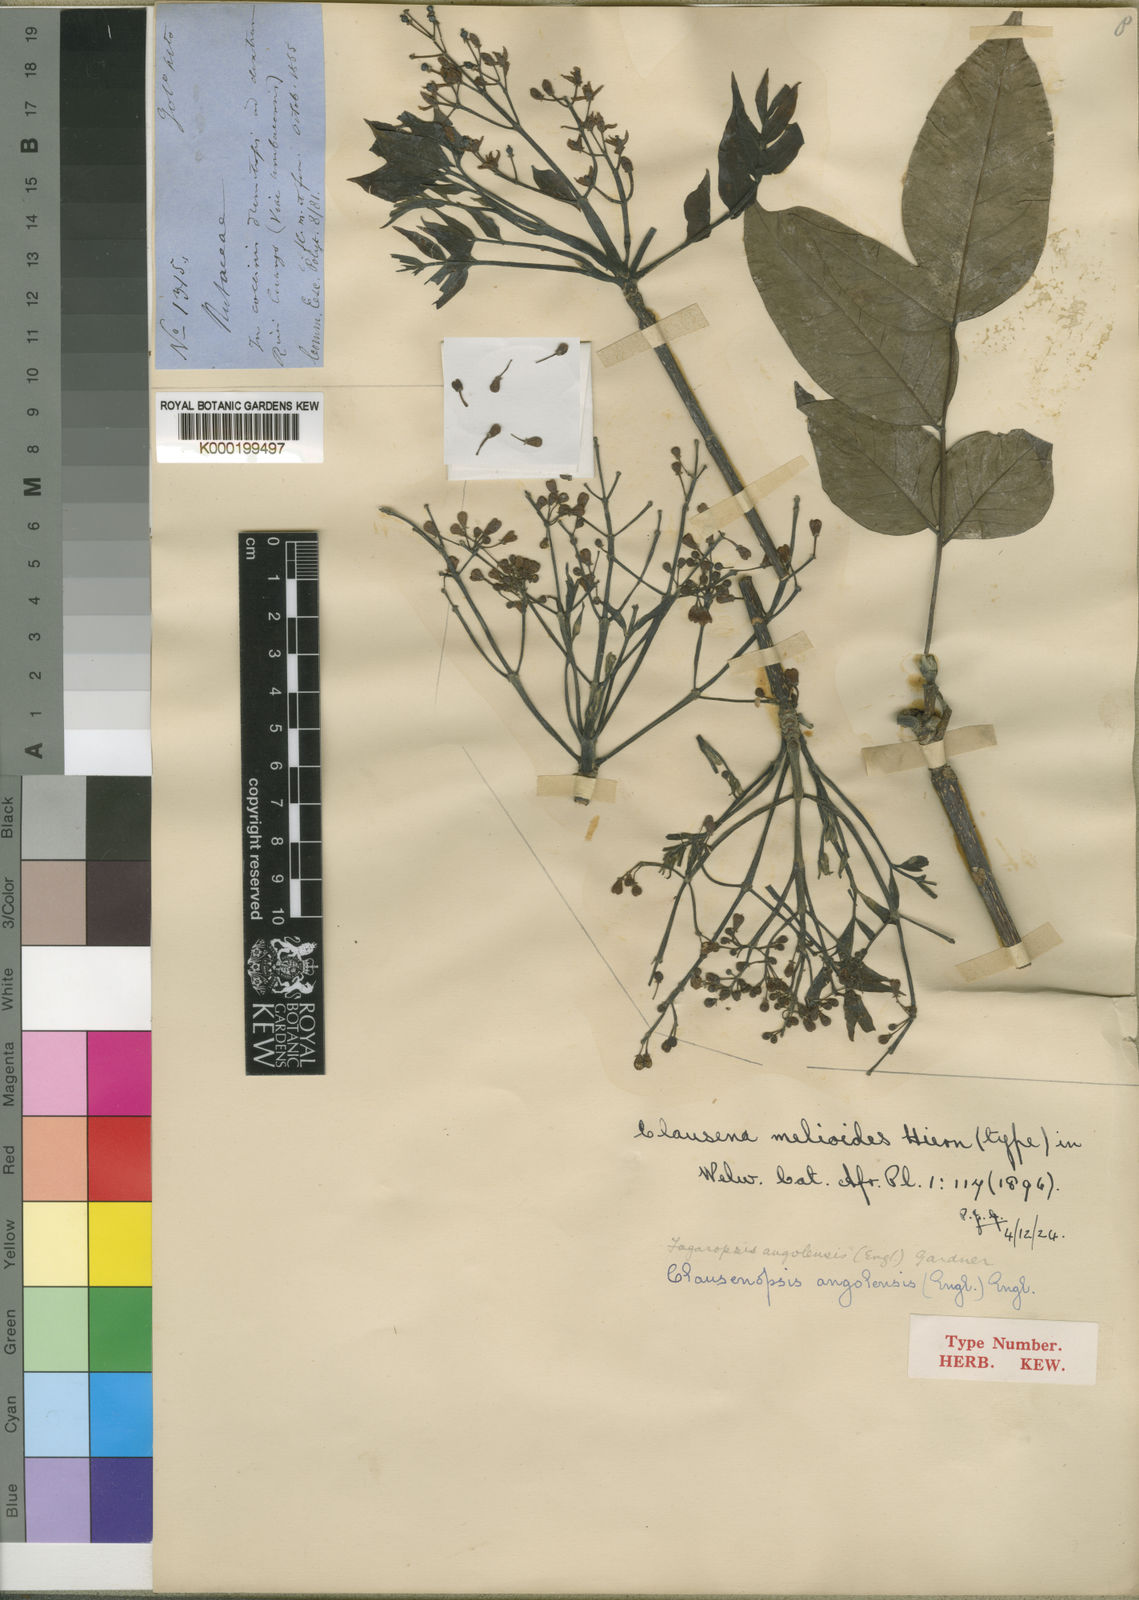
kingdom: Plantae
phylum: Tracheophyta
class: Magnoliopsida
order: Sapindales
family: Rutaceae
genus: Fagaropsis
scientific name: Fagaropsis angolensis
